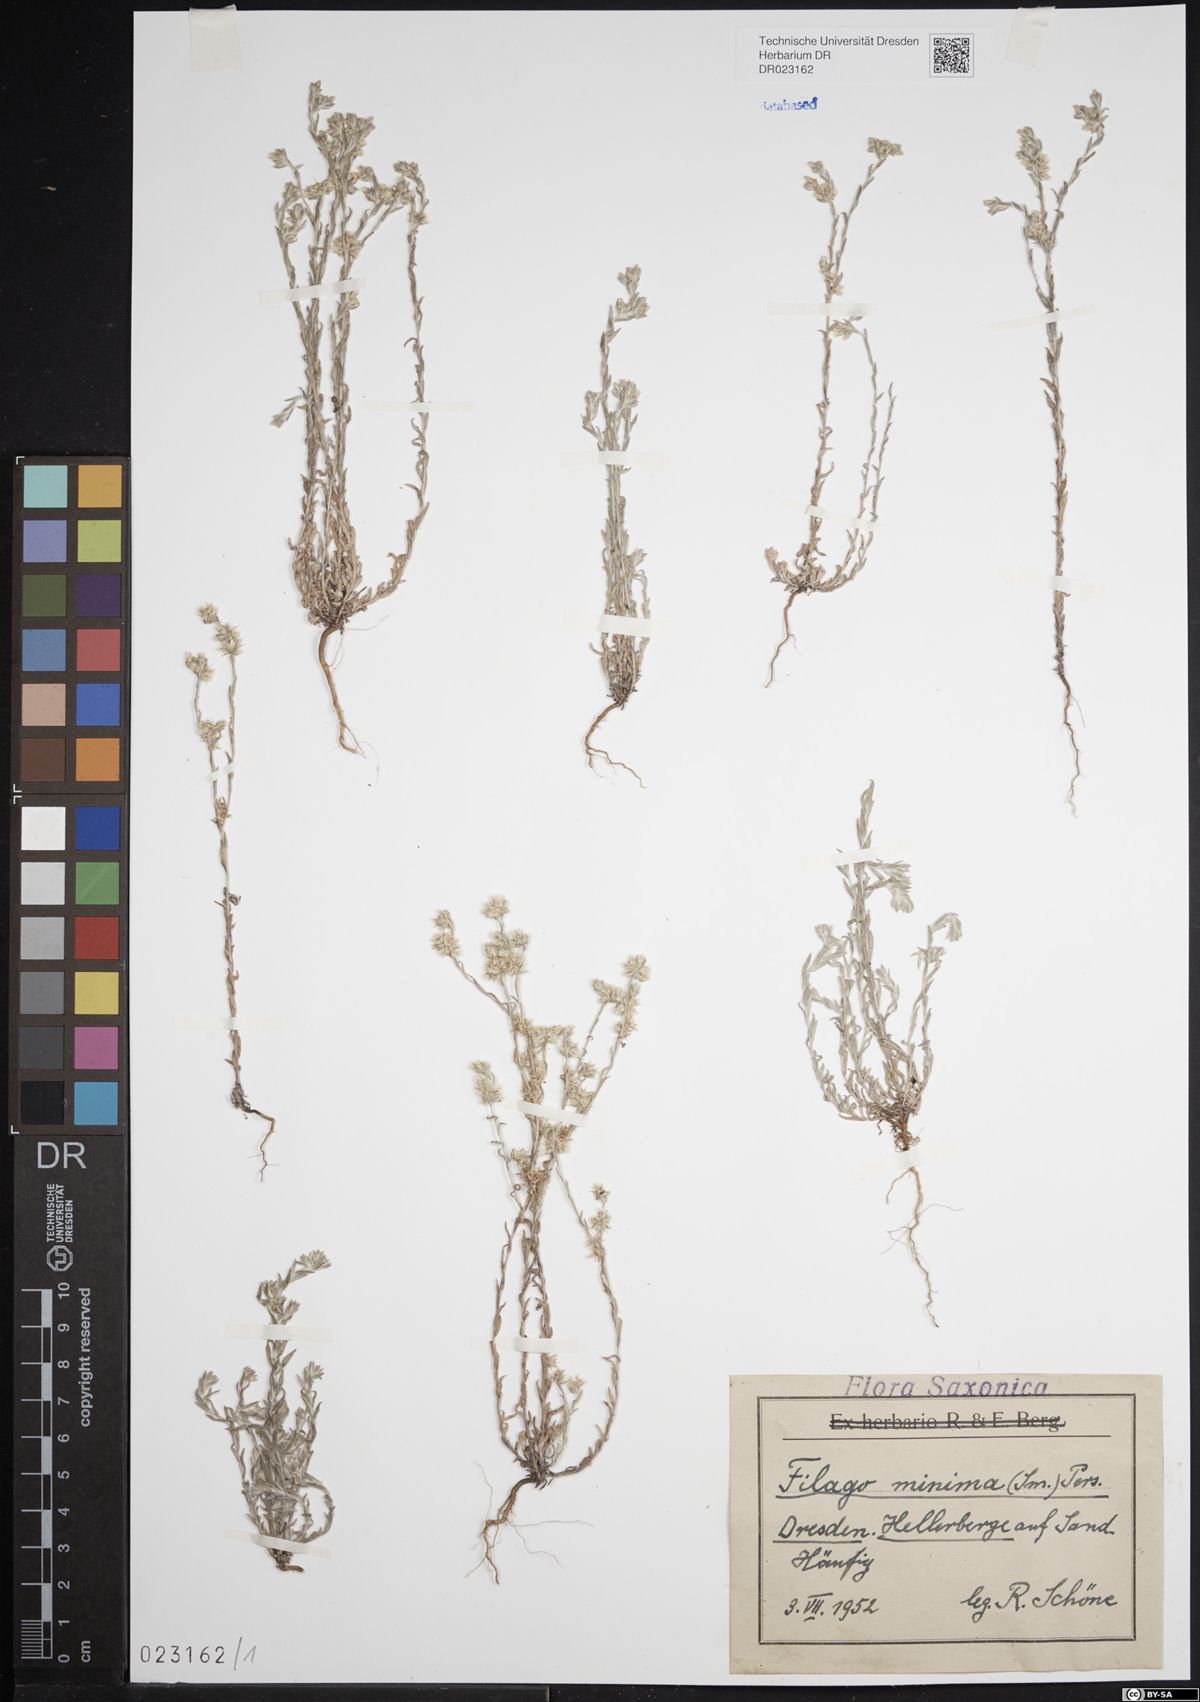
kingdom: Plantae
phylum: Tracheophyta
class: Magnoliopsida
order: Asterales
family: Asteraceae
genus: Logfia
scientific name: Logfia minima
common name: Little cottonrose
